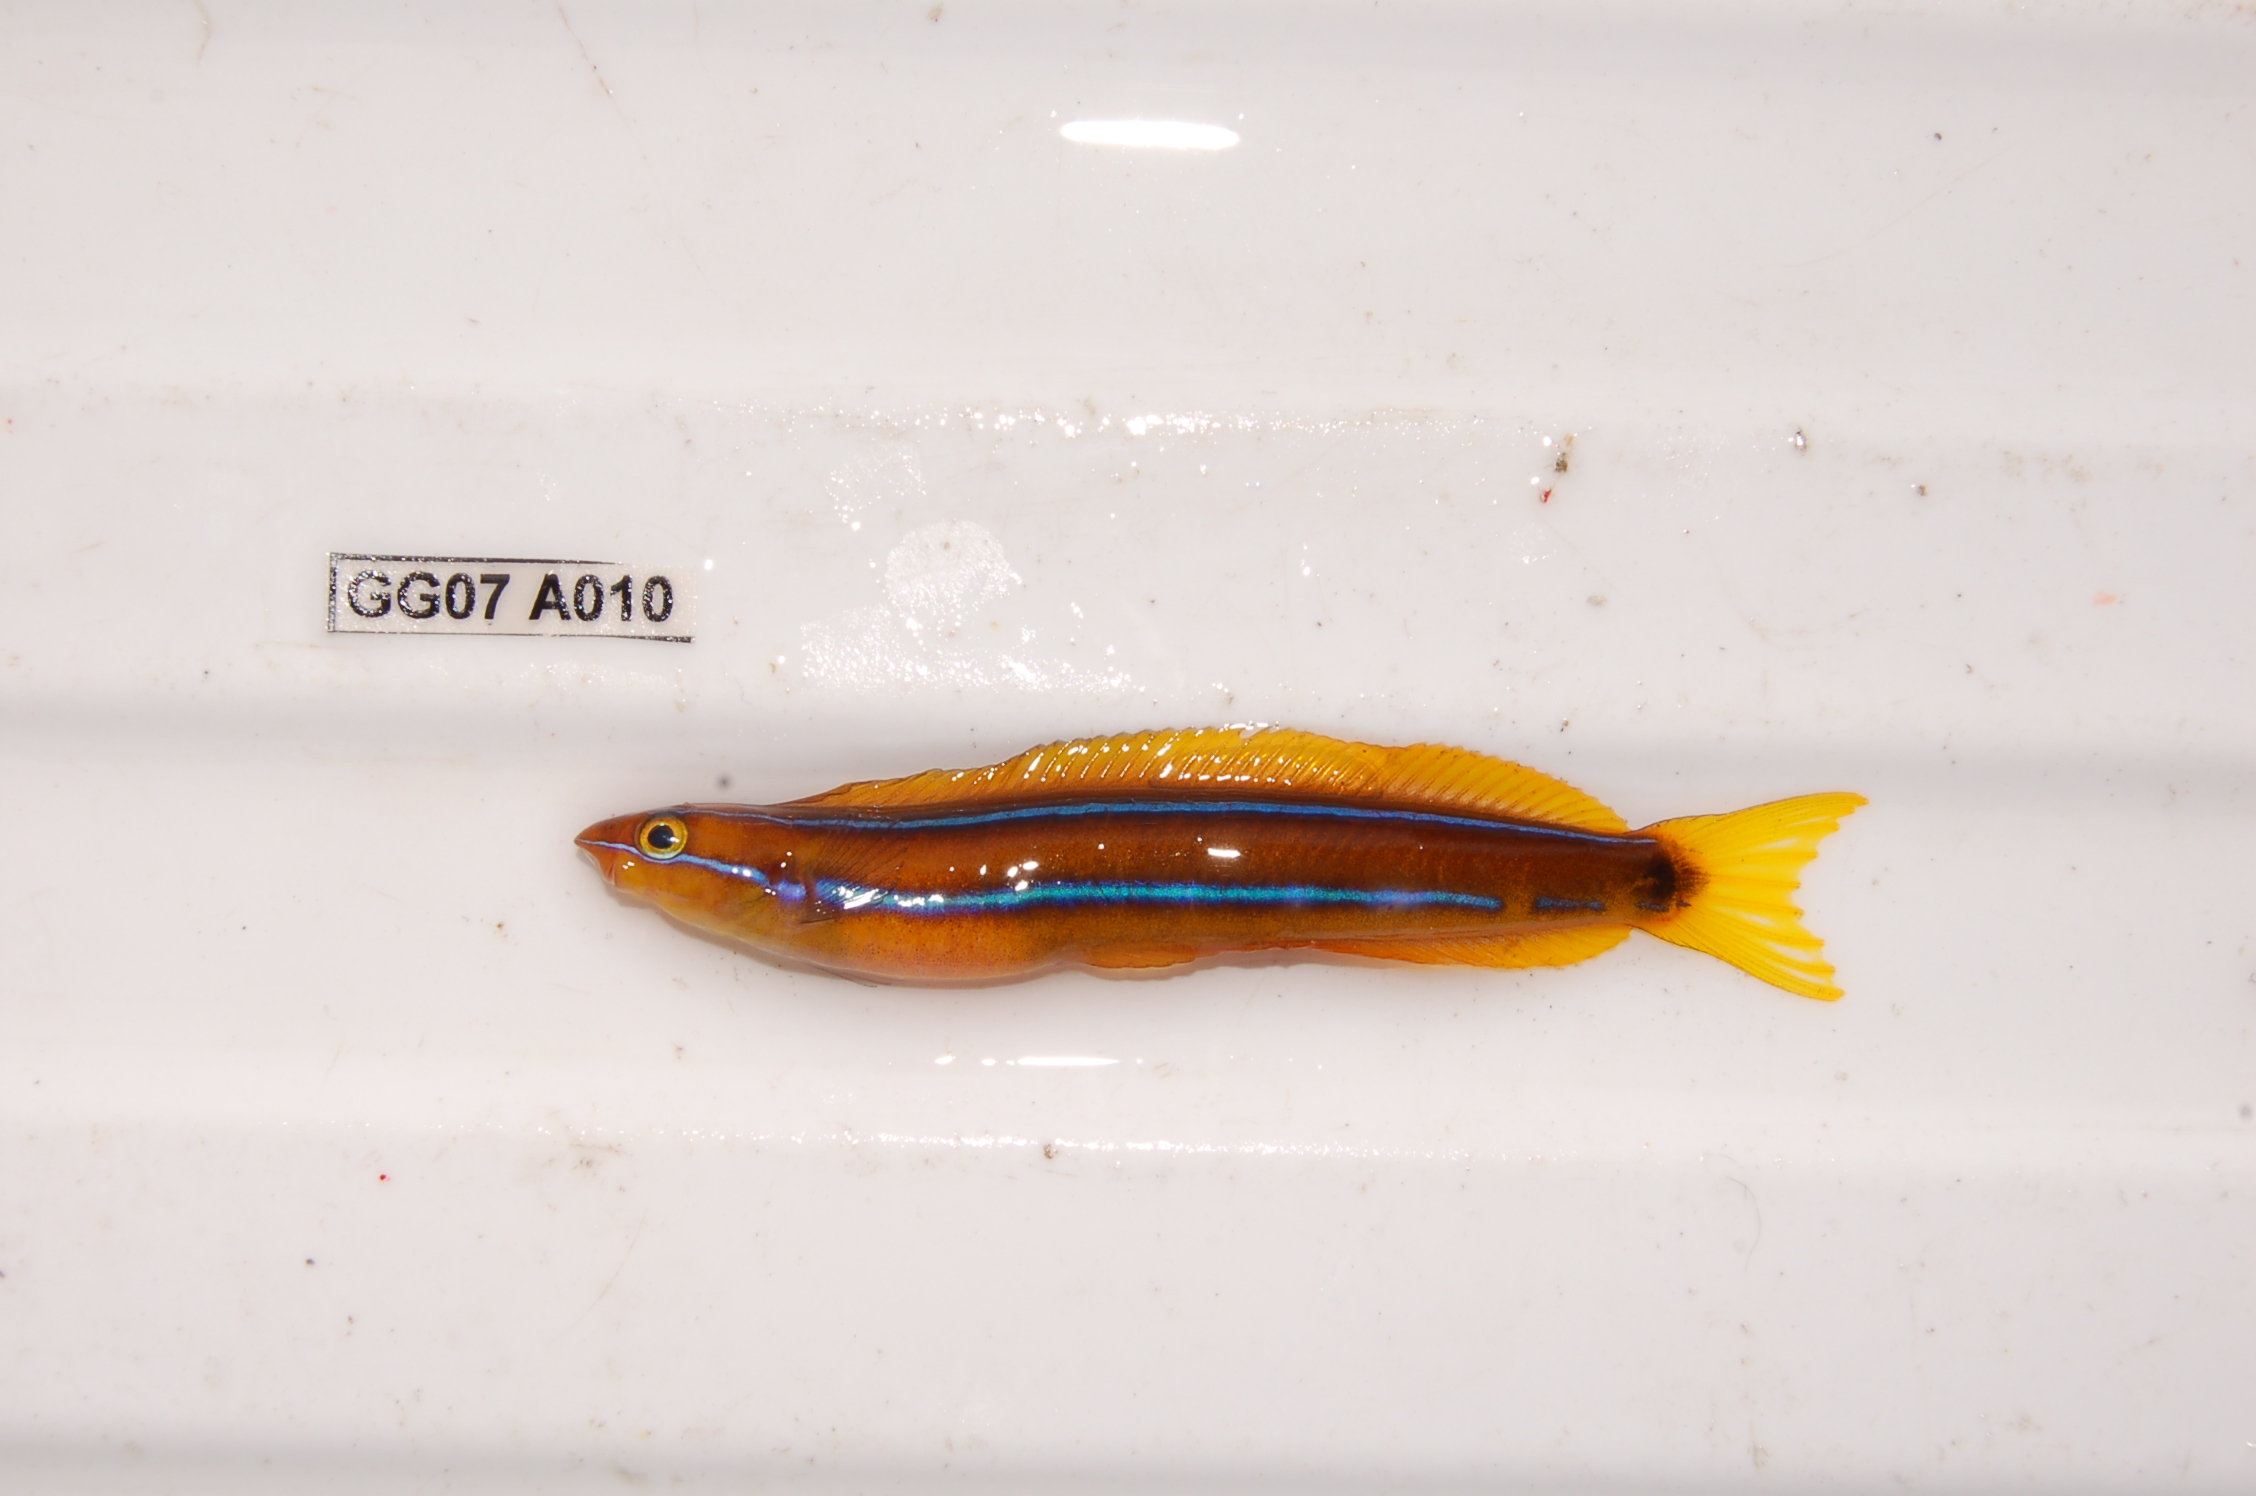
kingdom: Animalia
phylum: Chordata
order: Perciformes
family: Blenniidae
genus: Plagiotremus
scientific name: Plagiotremus rhinorhynchos
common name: Bluestriped fangblenny
